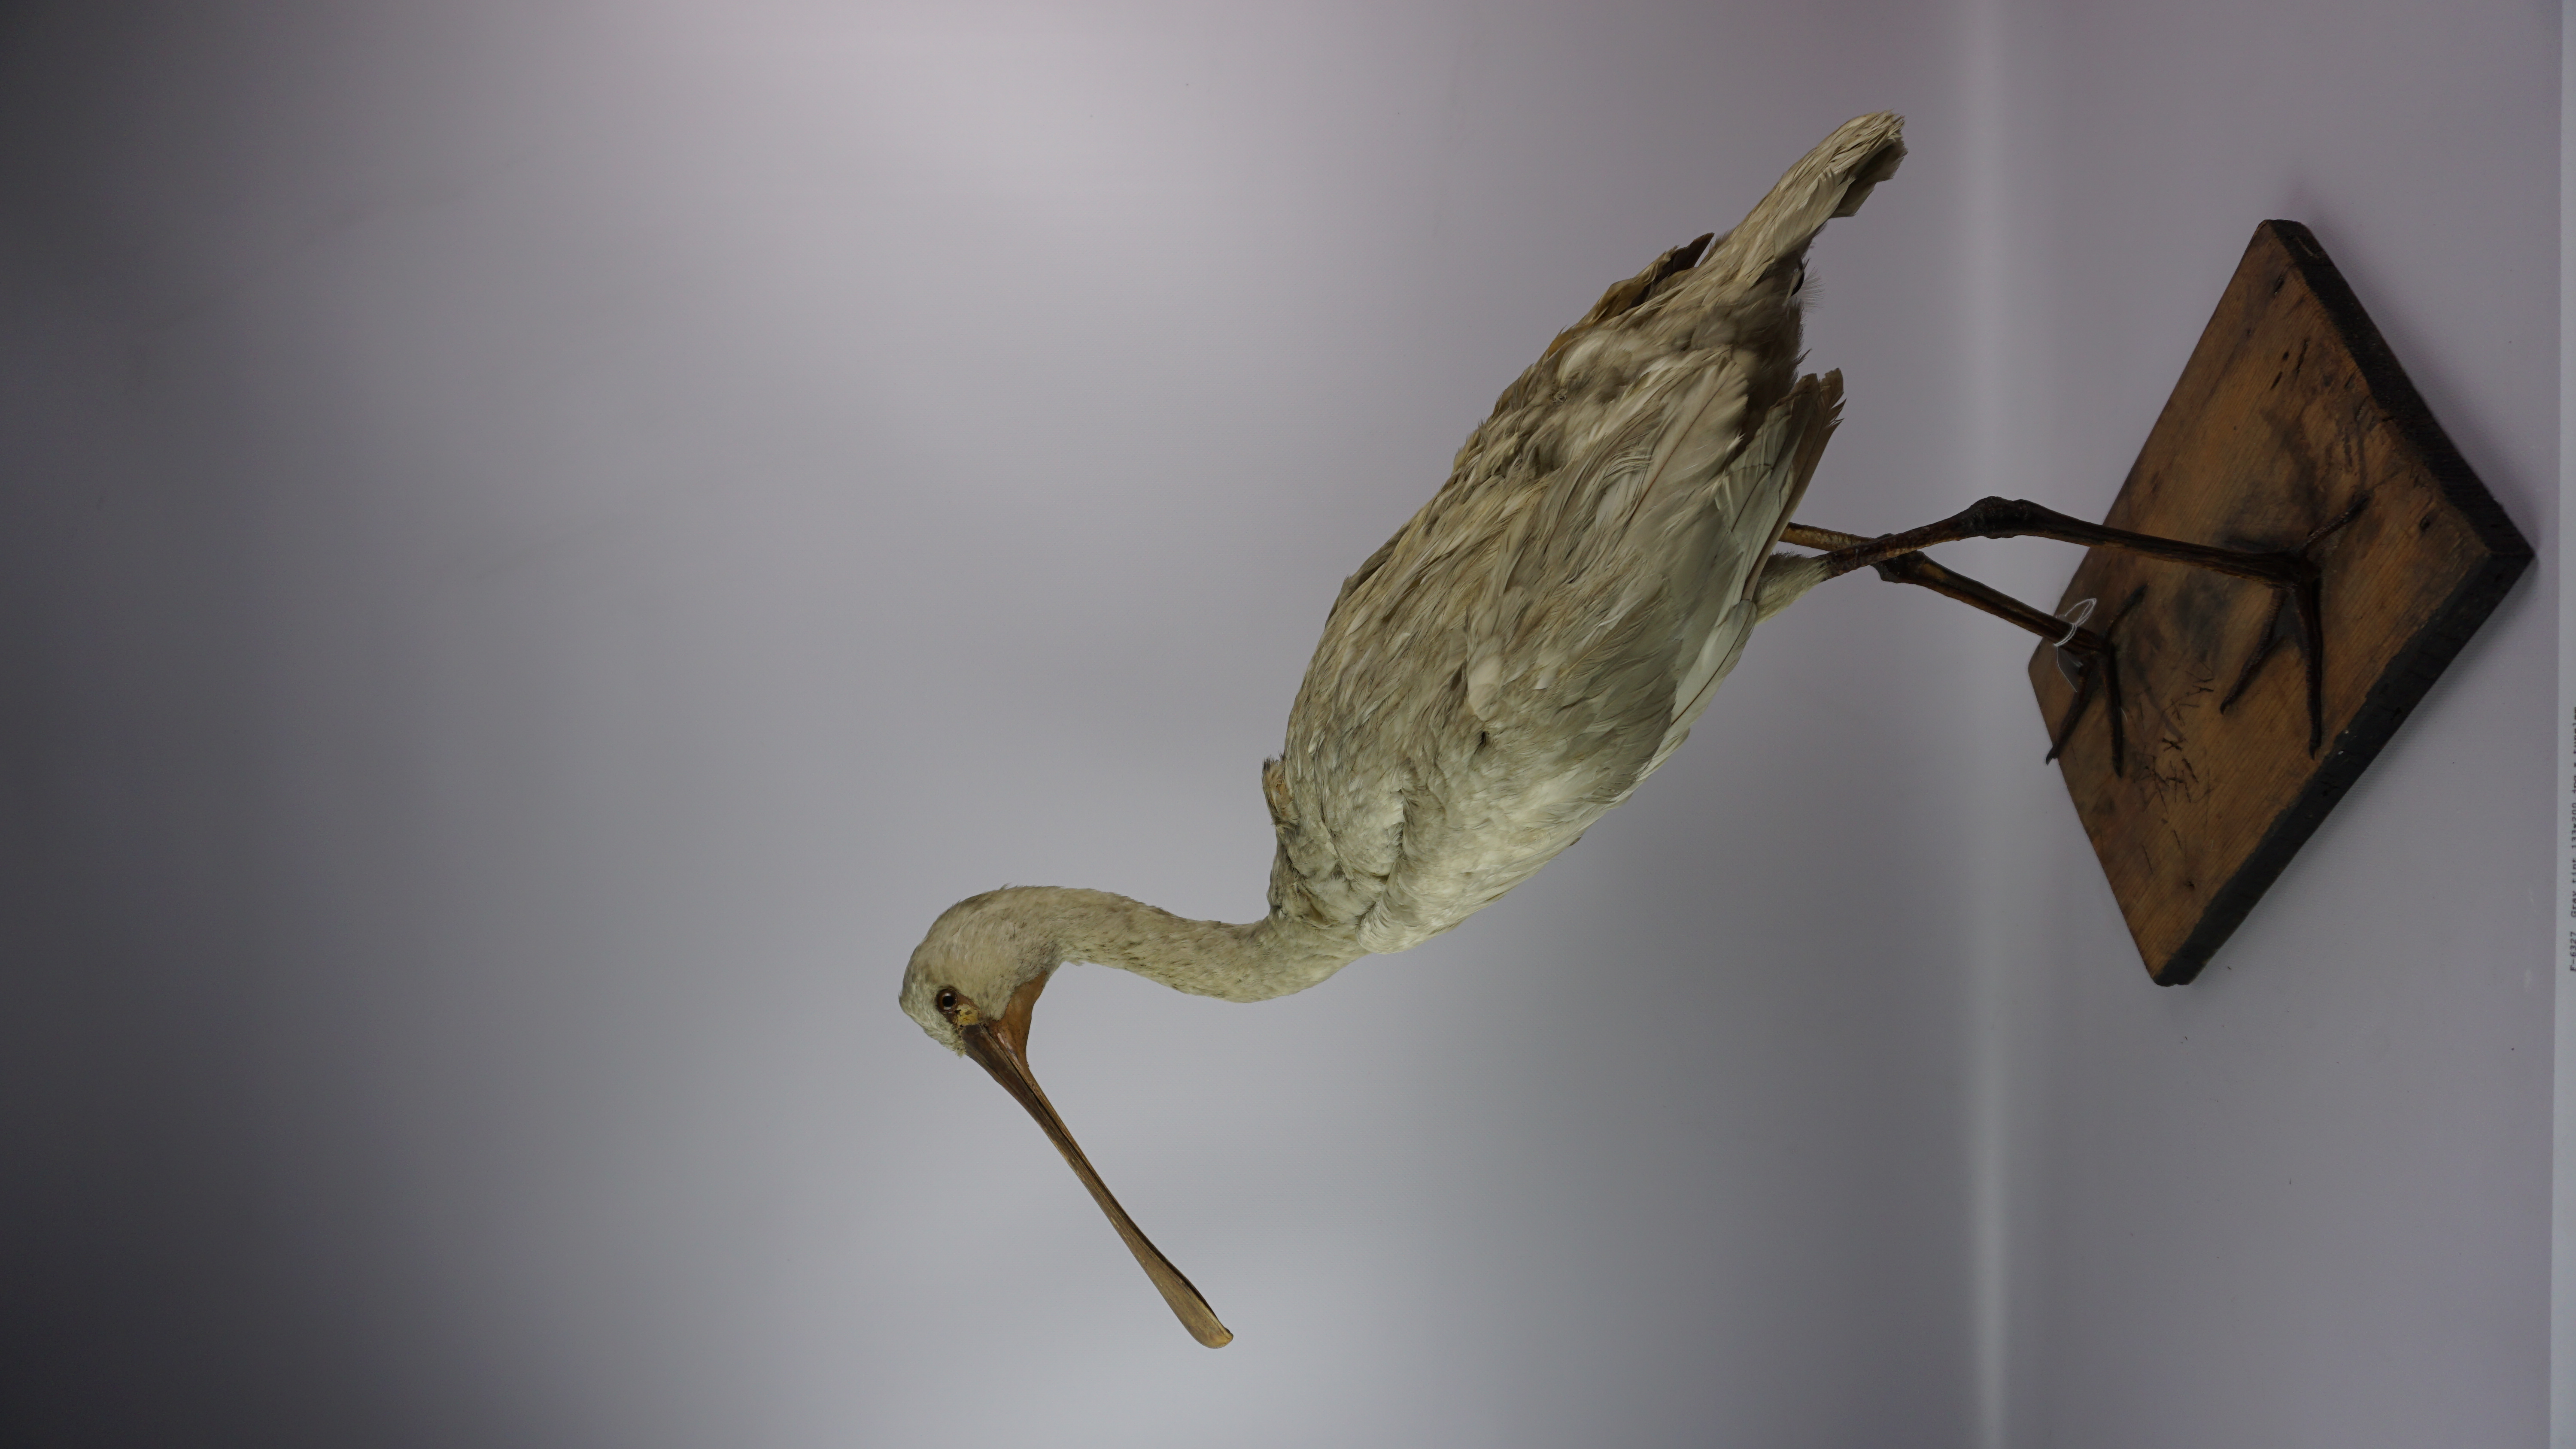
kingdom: Animalia
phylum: Chordata
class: Aves
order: Pelecaniformes
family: Threskiornithidae
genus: Platalea
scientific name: Platalea leucorodia
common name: Eurasian spoonbill
